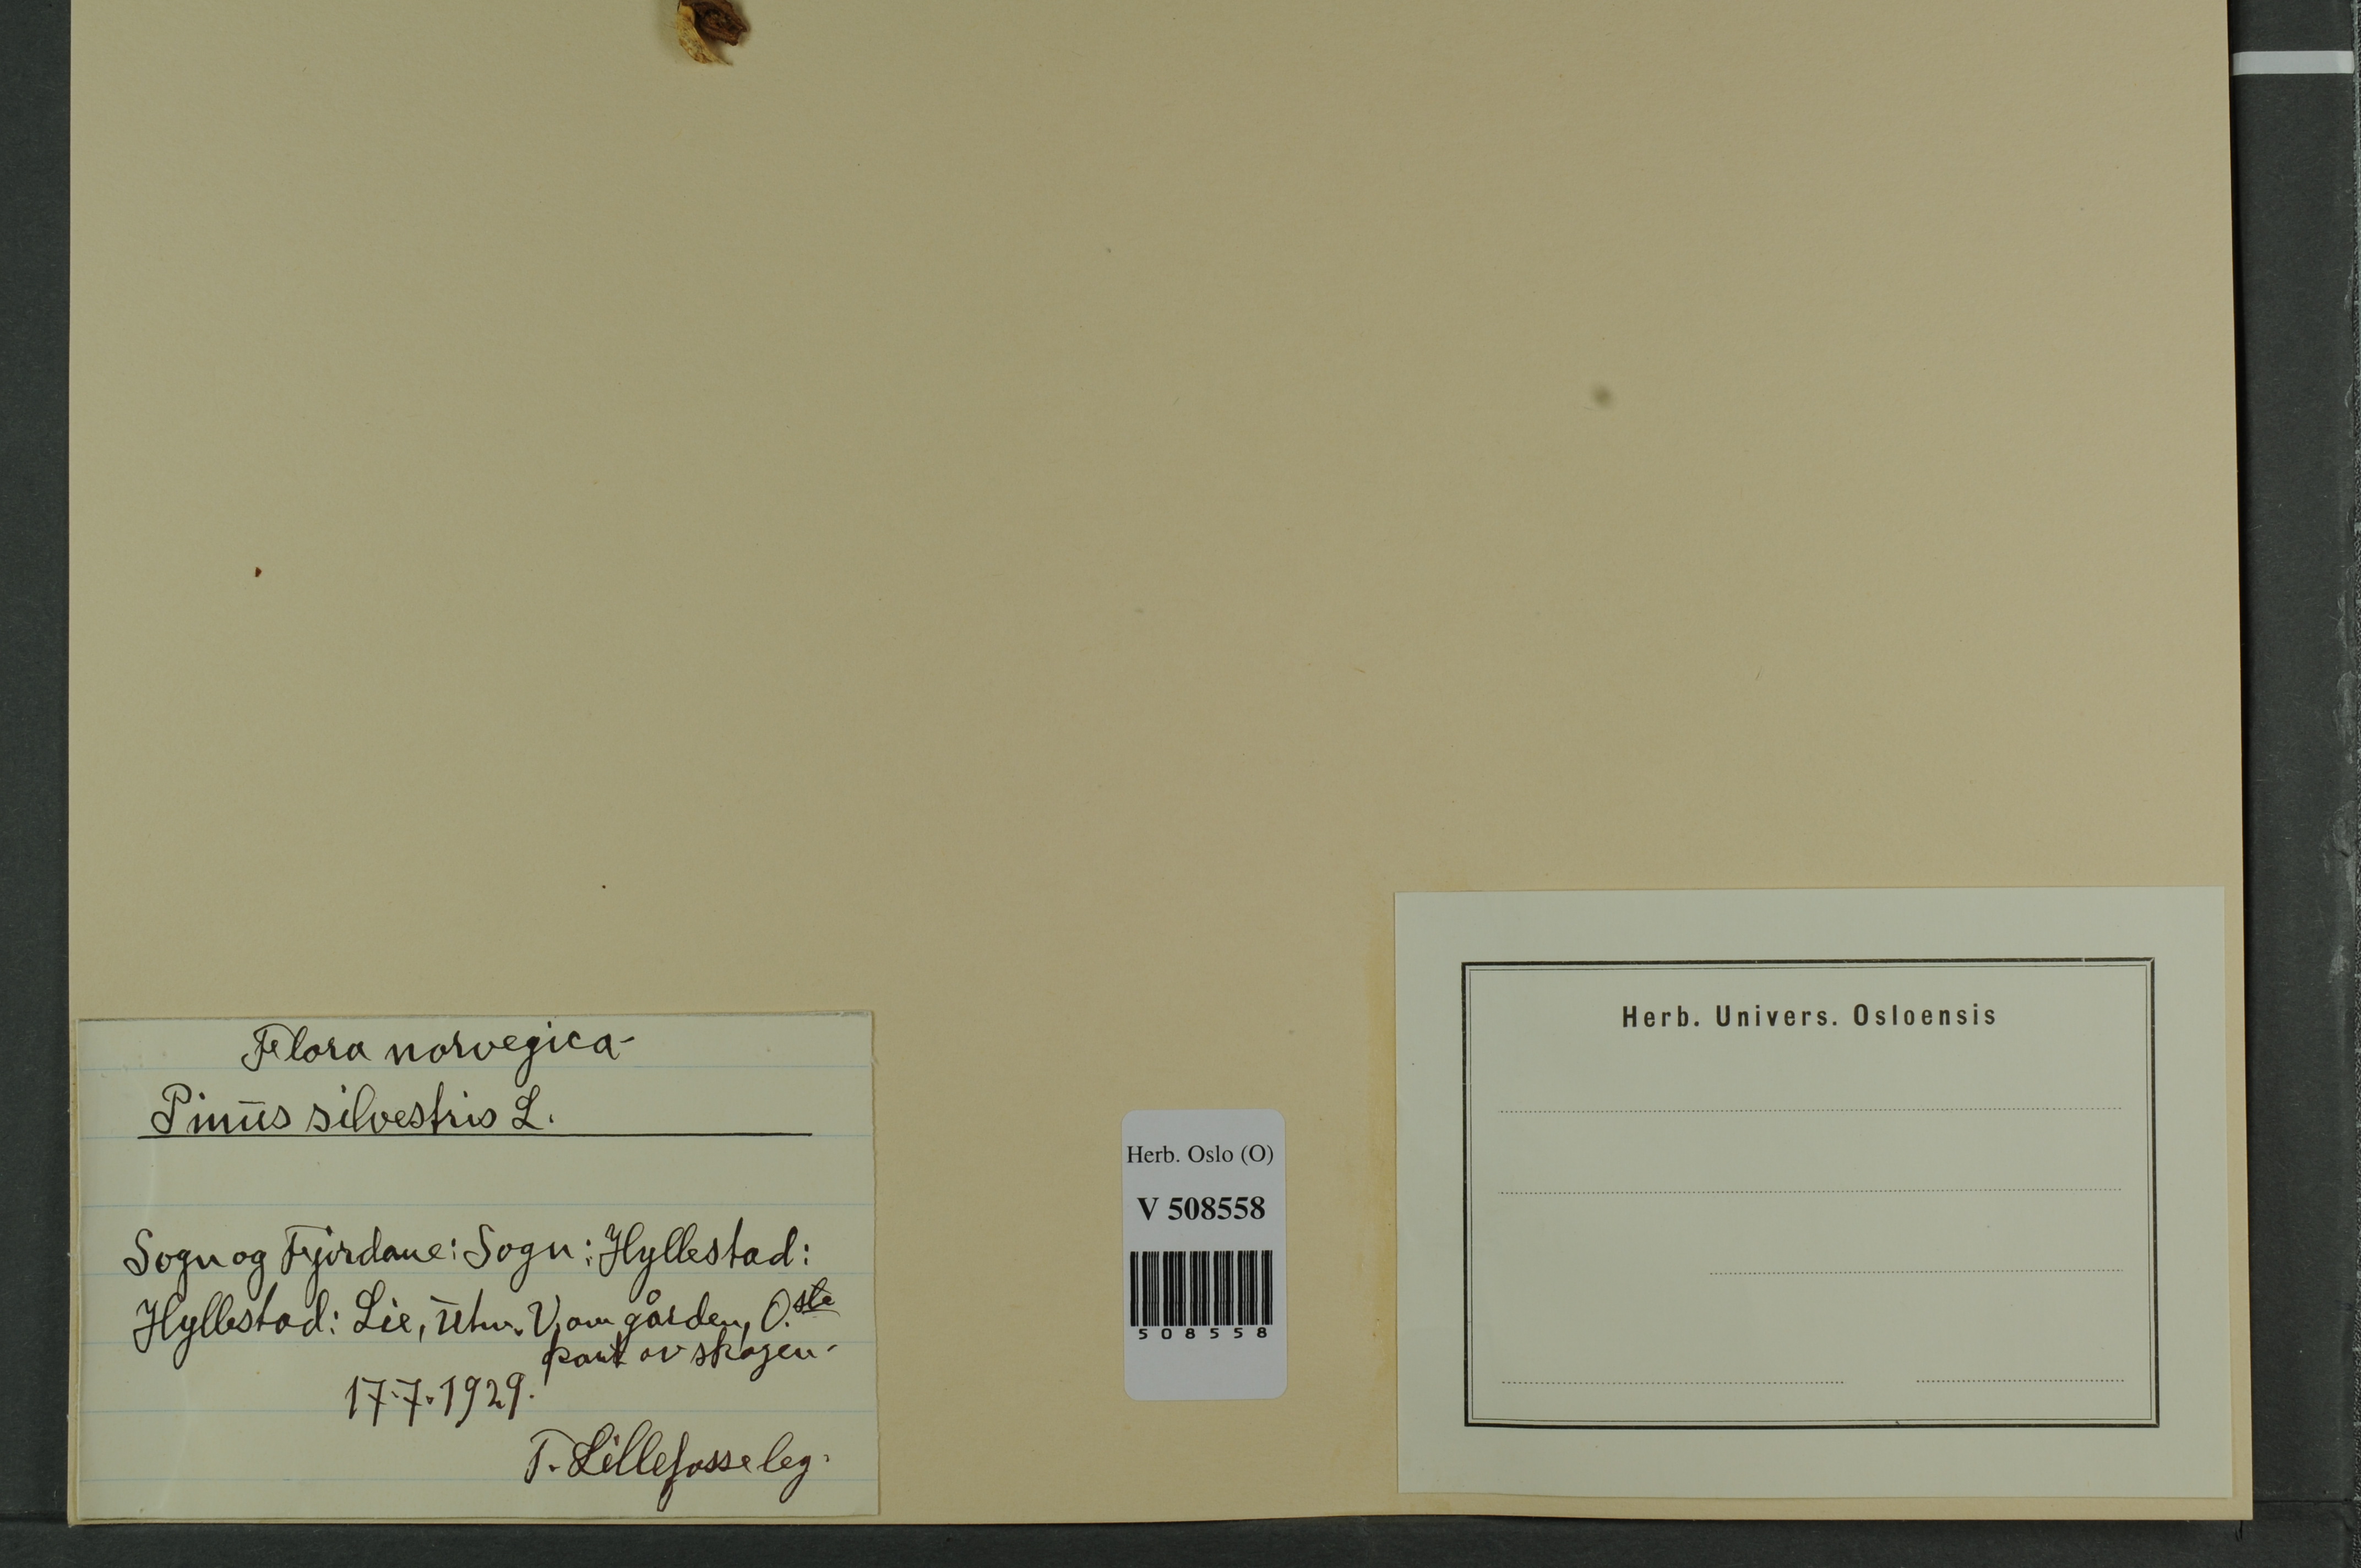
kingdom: Plantae
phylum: Tracheophyta
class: Pinopsida
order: Pinales
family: Pinaceae
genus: Pinus
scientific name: Pinus sylvestris
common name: Scots pine
